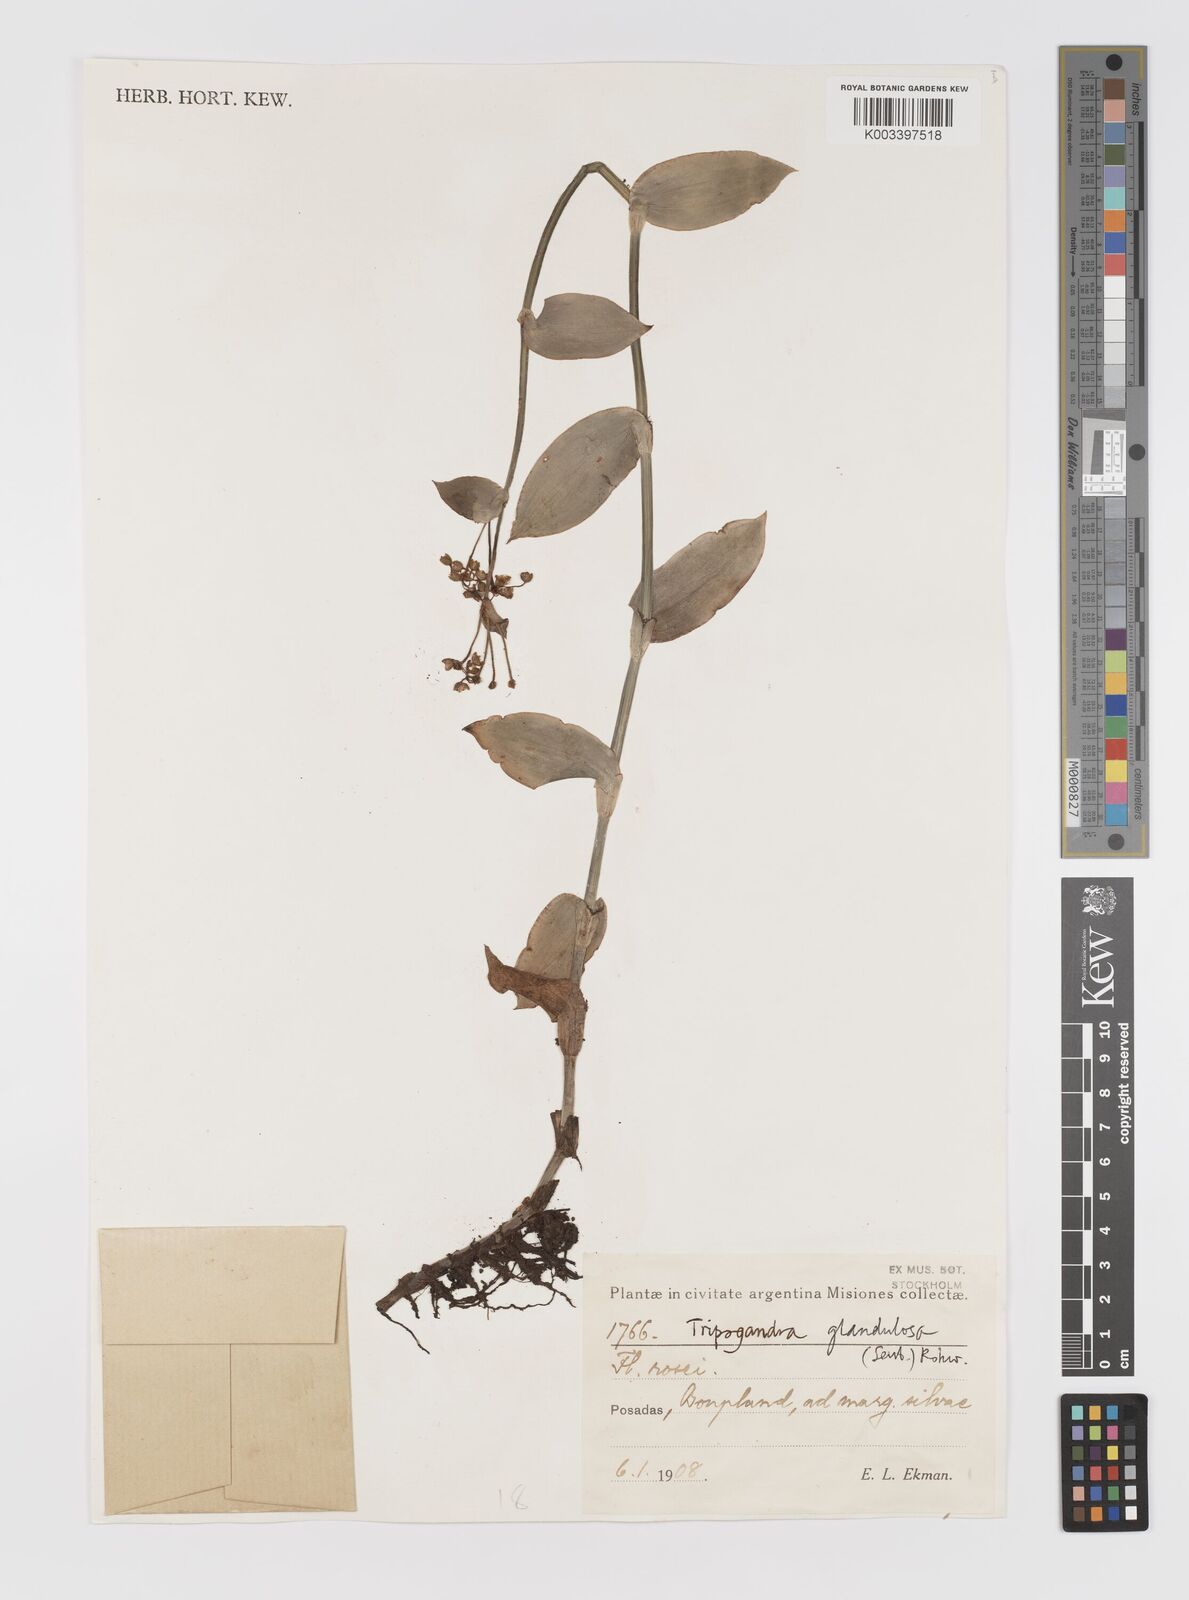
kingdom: Plantae
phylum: Tracheophyta
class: Liliopsida
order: Commelinales
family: Commelinaceae
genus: Callisia
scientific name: Callisia glandulosa
